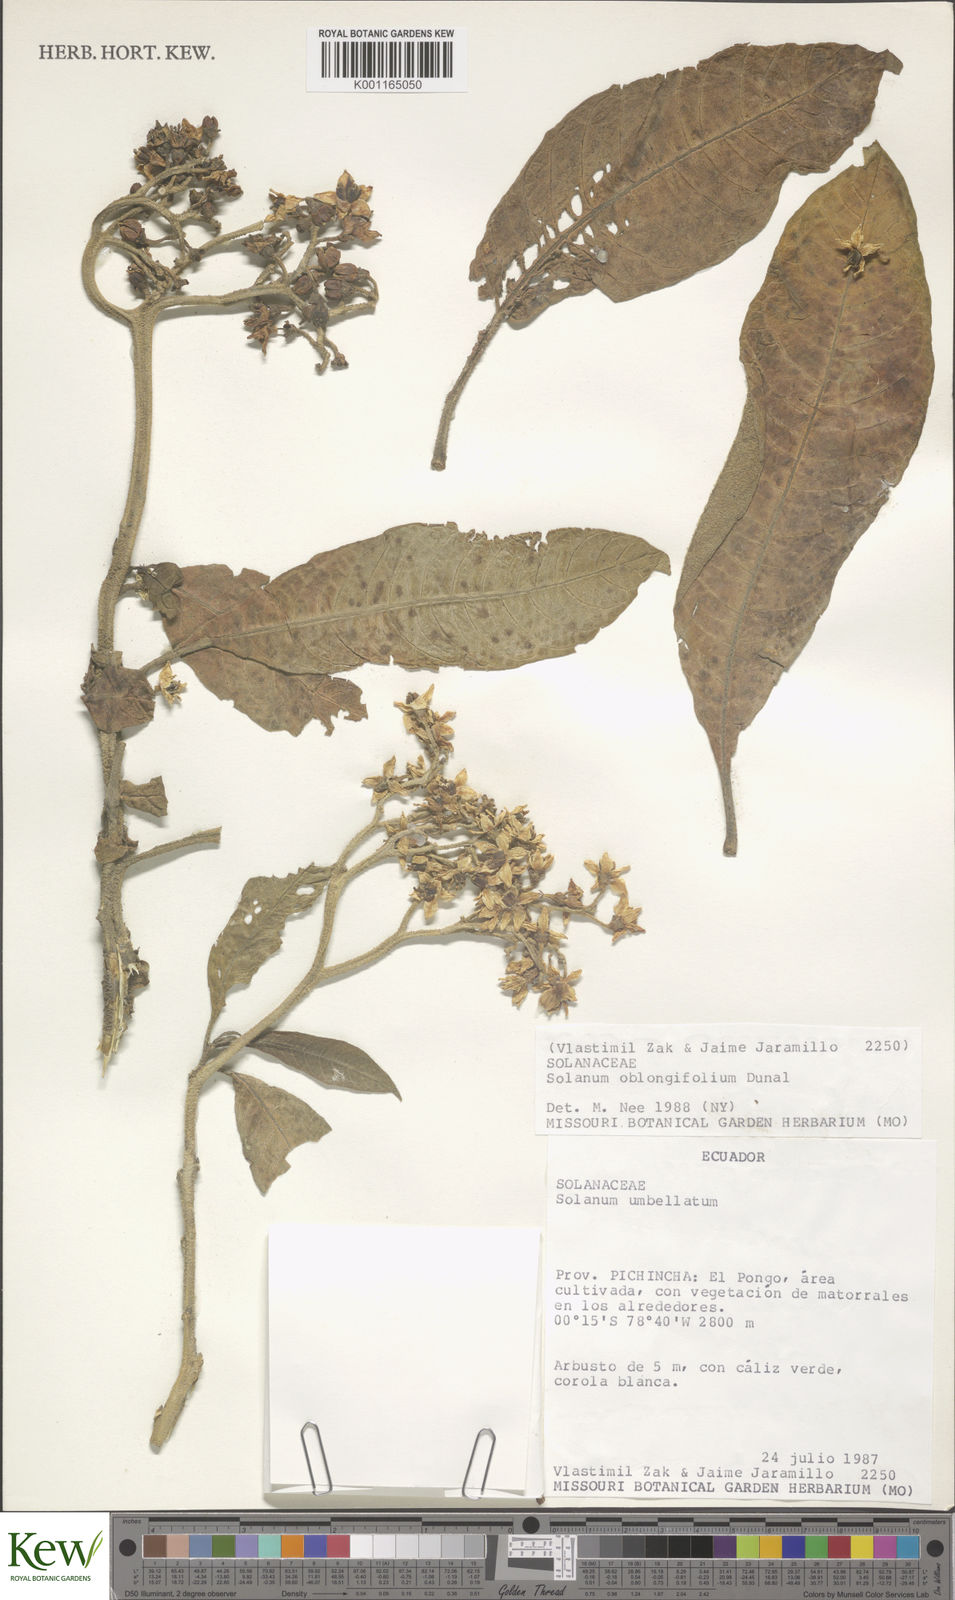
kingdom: Plantae
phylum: Tracheophyta
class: Magnoliopsida
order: Solanales
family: Solanaceae
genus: Solanum
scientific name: Solanum oblongifolium
